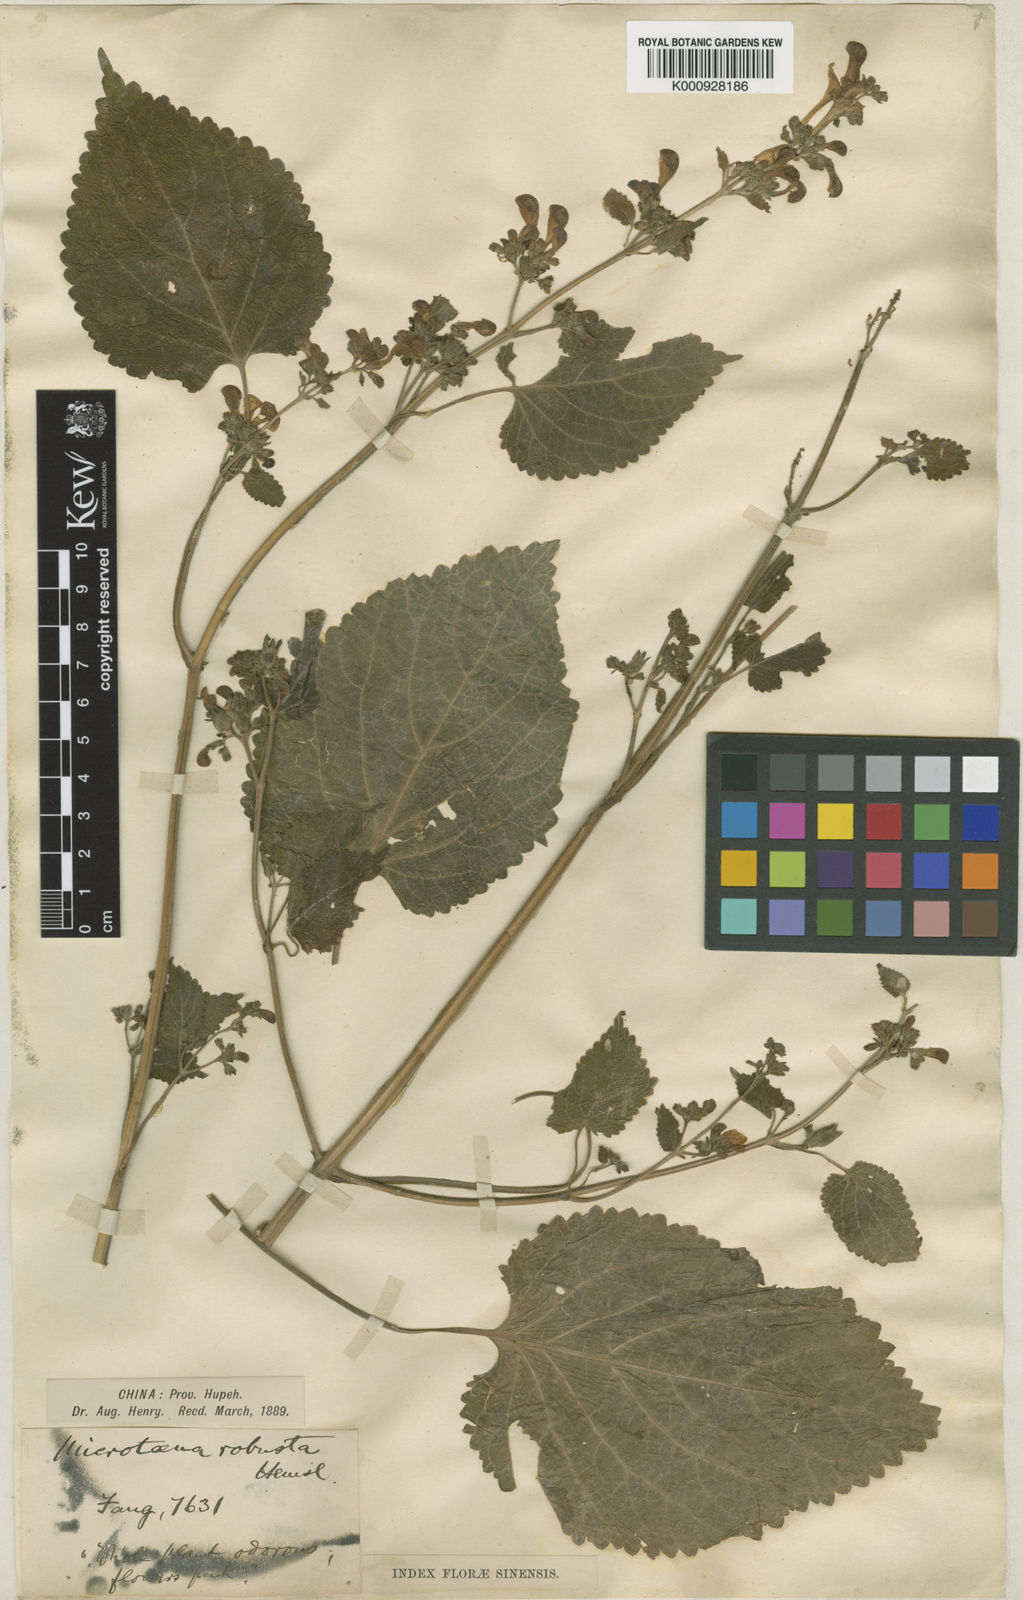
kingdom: Plantae
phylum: Tracheophyta
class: Magnoliopsida
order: Lamiales
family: Lamiaceae
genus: Microtoena
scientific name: Microtoena robusta
